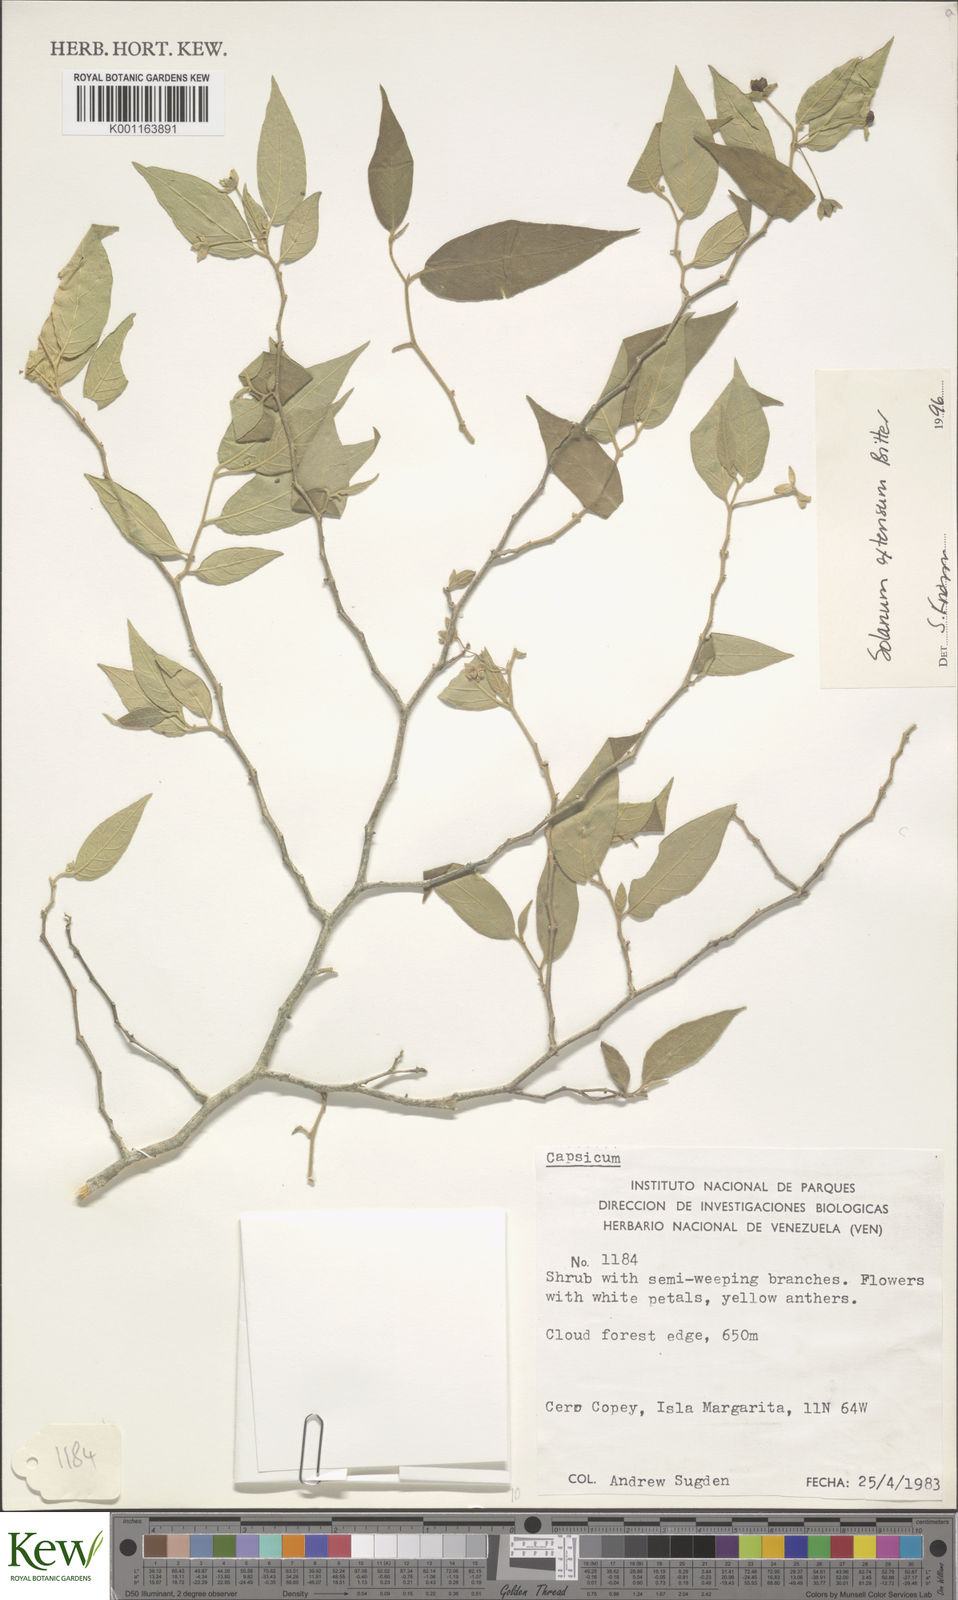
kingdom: Plantae
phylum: Tracheophyta
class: Magnoliopsida
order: Solanales
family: Solanaceae
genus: Solanum
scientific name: Solanum cordovense
